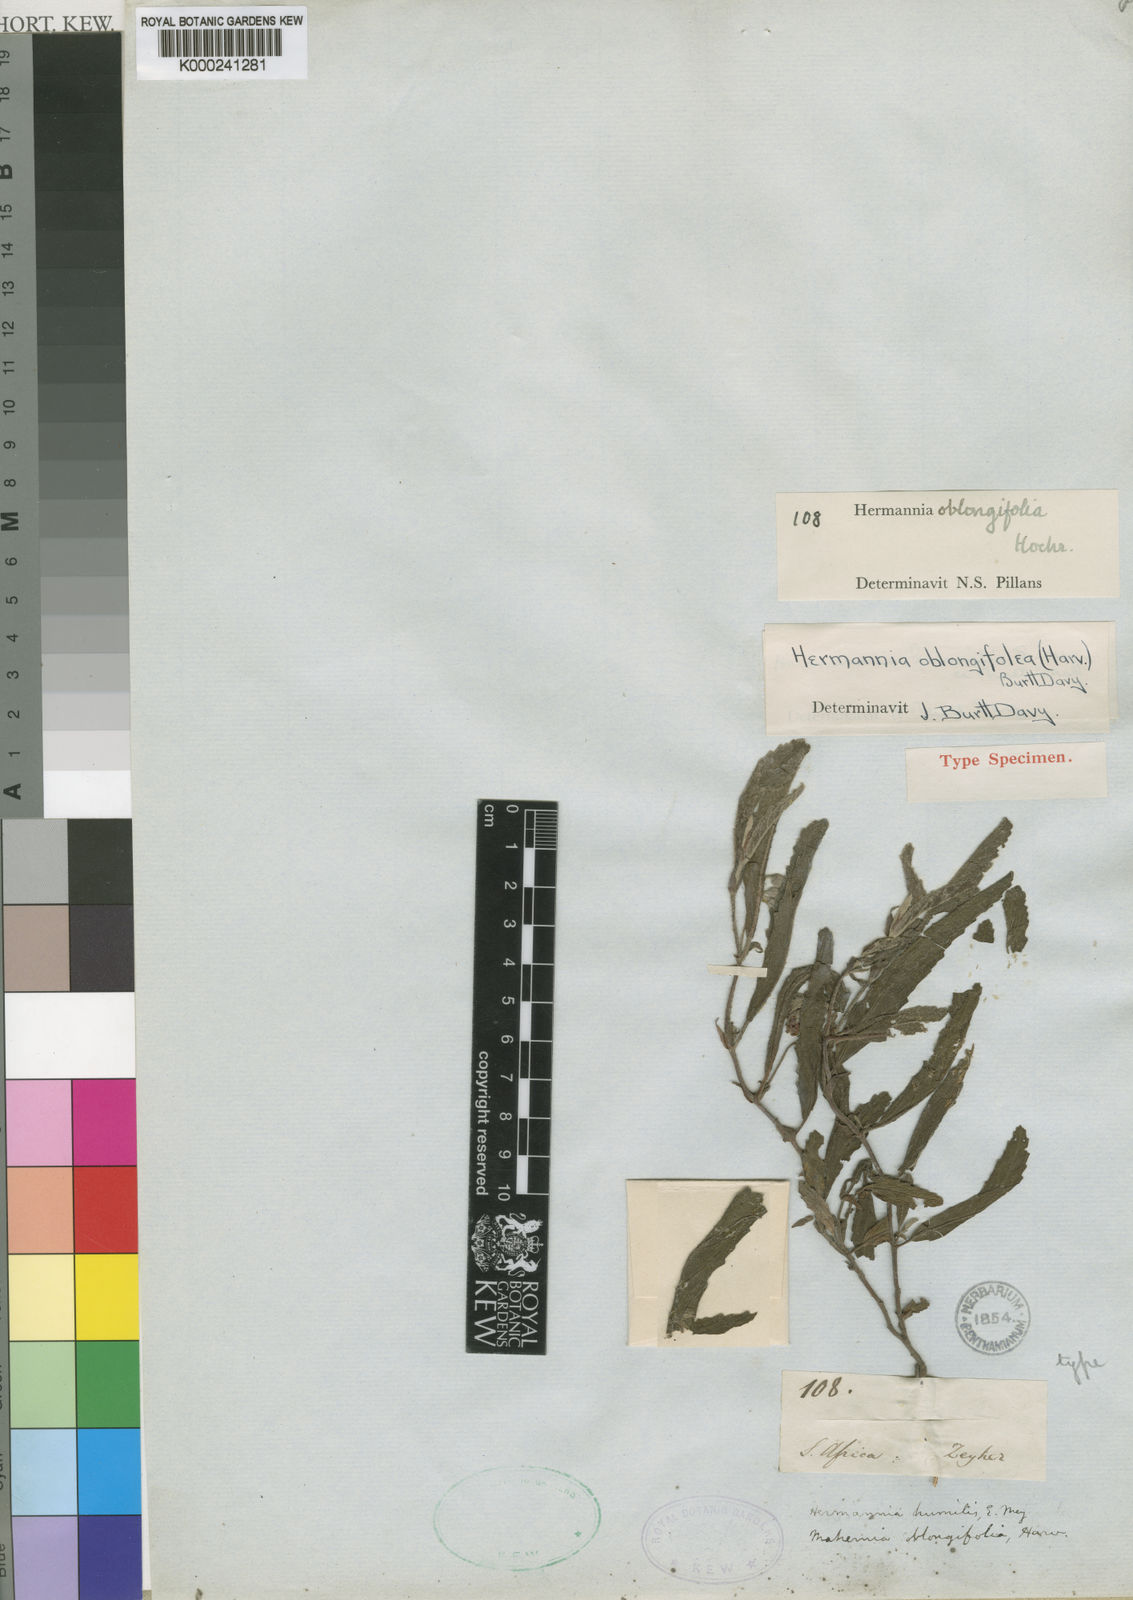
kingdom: Plantae
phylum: Tracheophyta
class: Magnoliopsida
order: Malvales
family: Malvaceae
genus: Hermannia
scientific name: Hermannia oblongifolia
